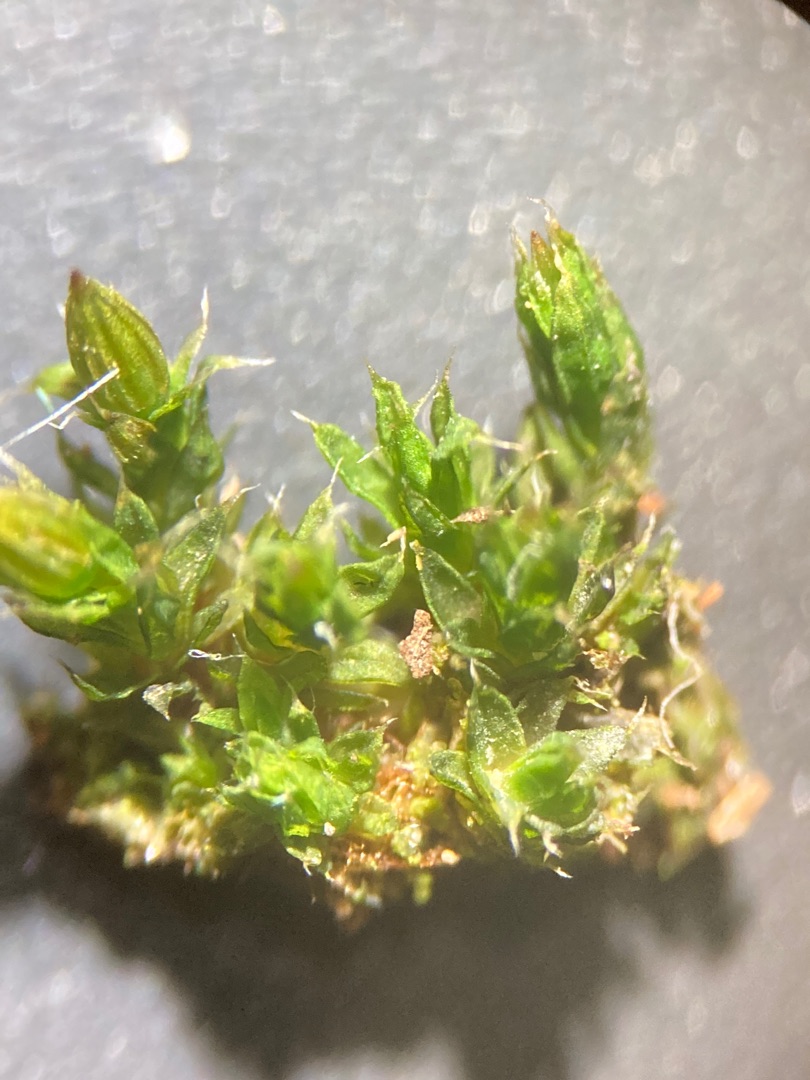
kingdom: Plantae
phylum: Bryophyta
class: Bryopsida
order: Orthotrichales
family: Orthotrichaceae
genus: Orthotrichum
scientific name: Orthotrichum diaphanum
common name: Hårspidset furehætte
